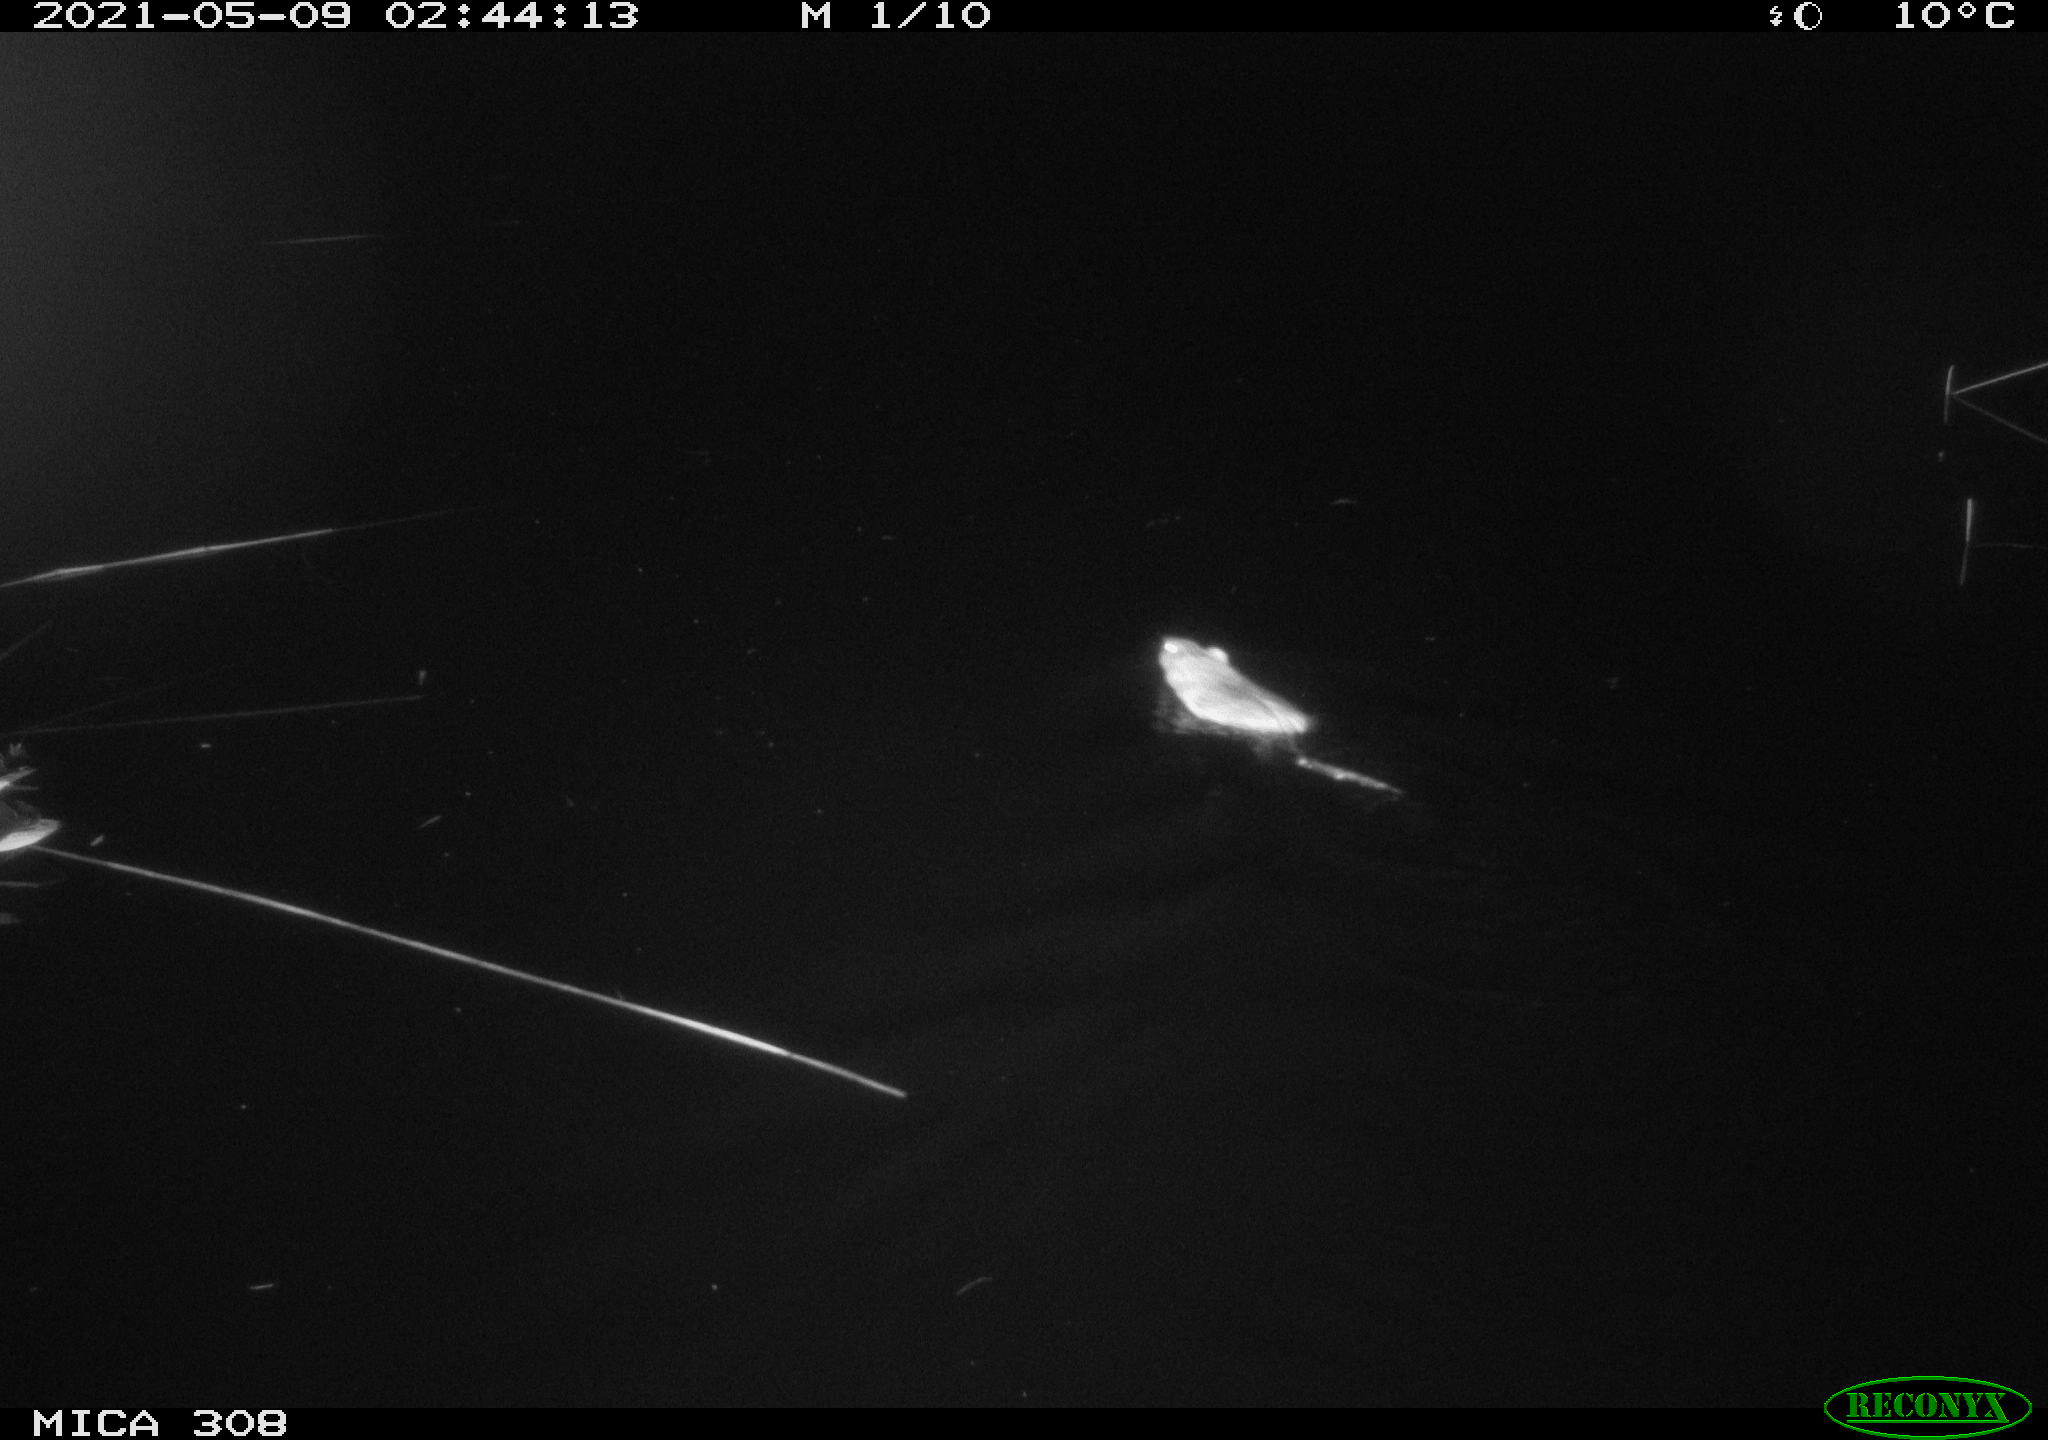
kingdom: Animalia
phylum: Chordata
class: Aves
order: Anseriformes
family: Anatidae
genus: Anas
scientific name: Anas platyrhynchos
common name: Mallard
